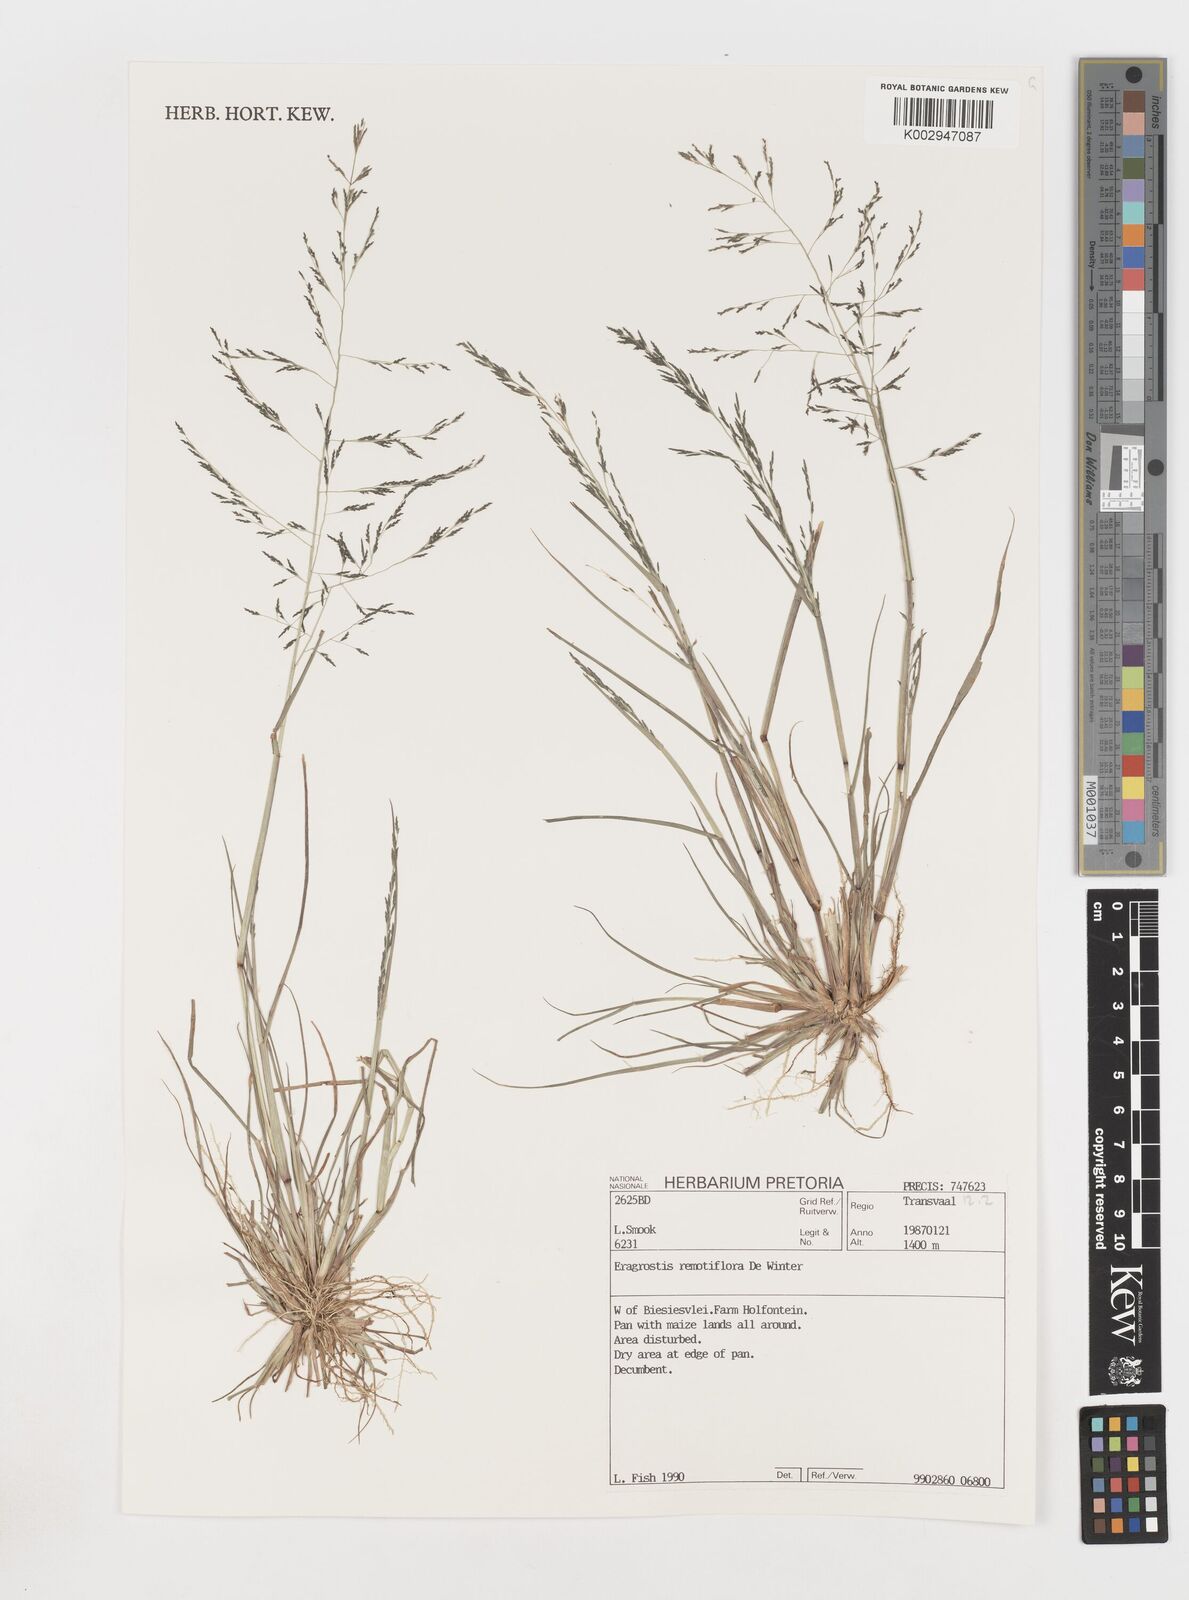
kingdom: Plantae
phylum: Tracheophyta
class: Liliopsida
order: Poales
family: Poaceae
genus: Eragrostis
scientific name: Eragrostis remotiflora
